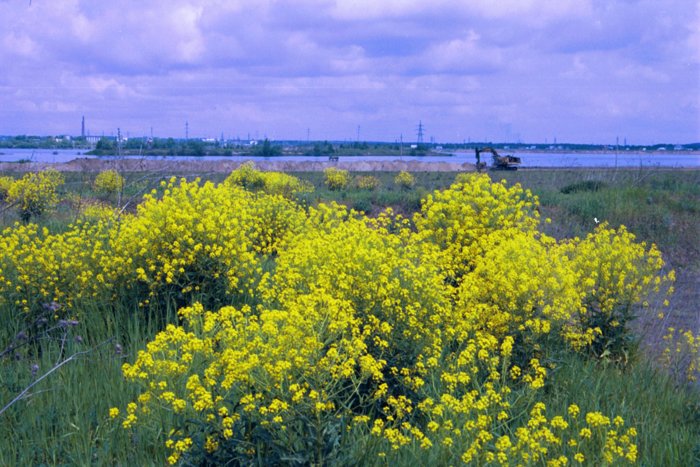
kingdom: Plantae
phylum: Tracheophyta
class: Magnoliopsida
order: Brassicales
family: Brassicaceae
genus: Barbarea
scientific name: Barbarea vulgaris
